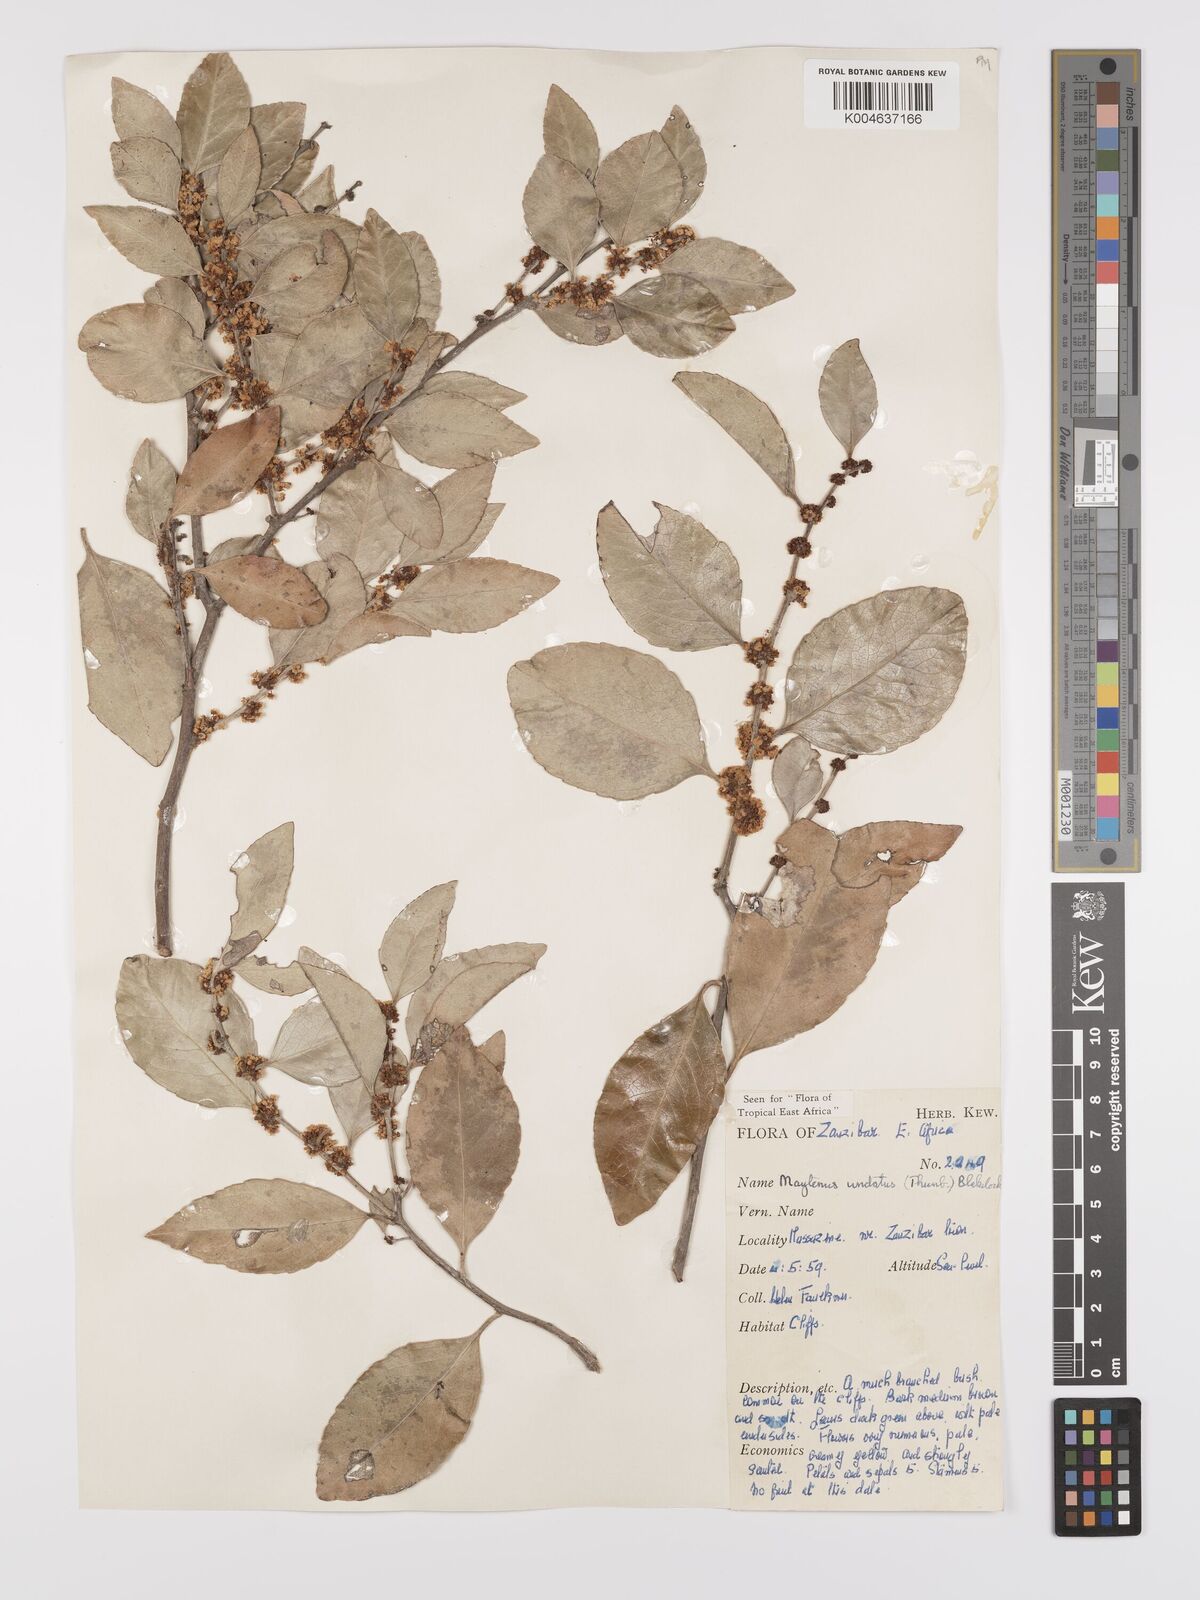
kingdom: Plantae
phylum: Tracheophyta
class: Magnoliopsida
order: Celastrales
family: Celastraceae
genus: Gymnosporia
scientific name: Gymnosporia undata
